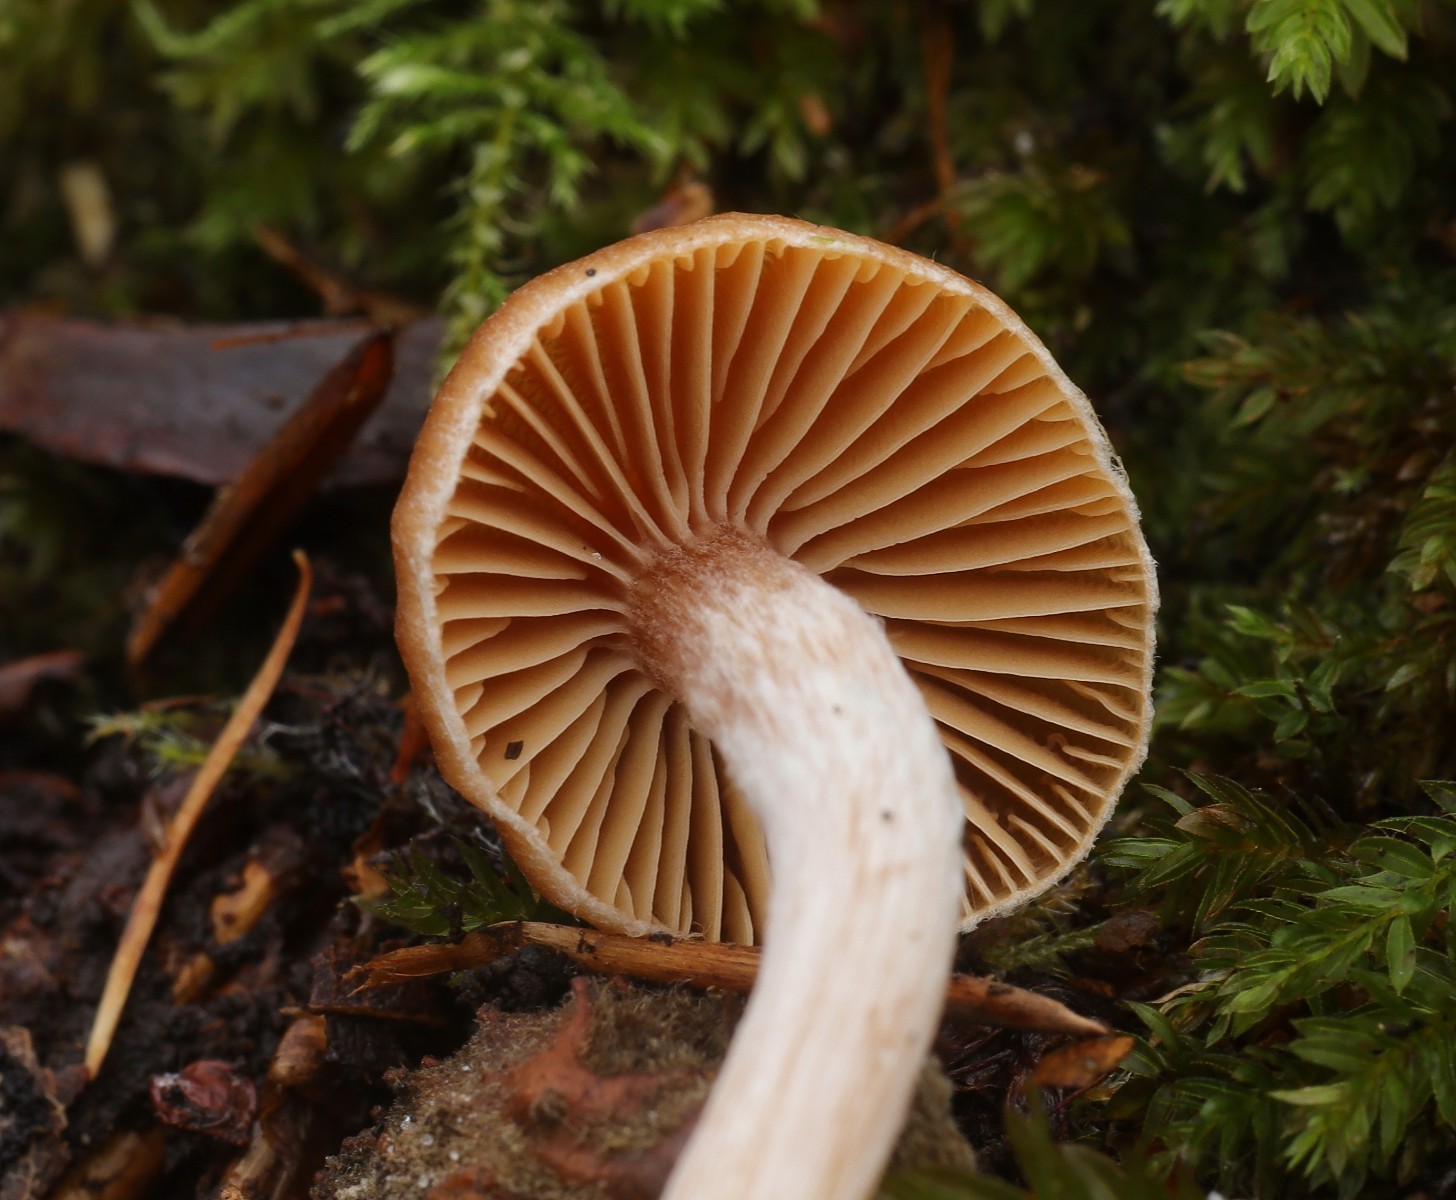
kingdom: Fungi
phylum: Basidiomycota
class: Agaricomycetes
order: Agaricales
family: Cortinariaceae
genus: Cortinarius
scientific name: Cortinarius
